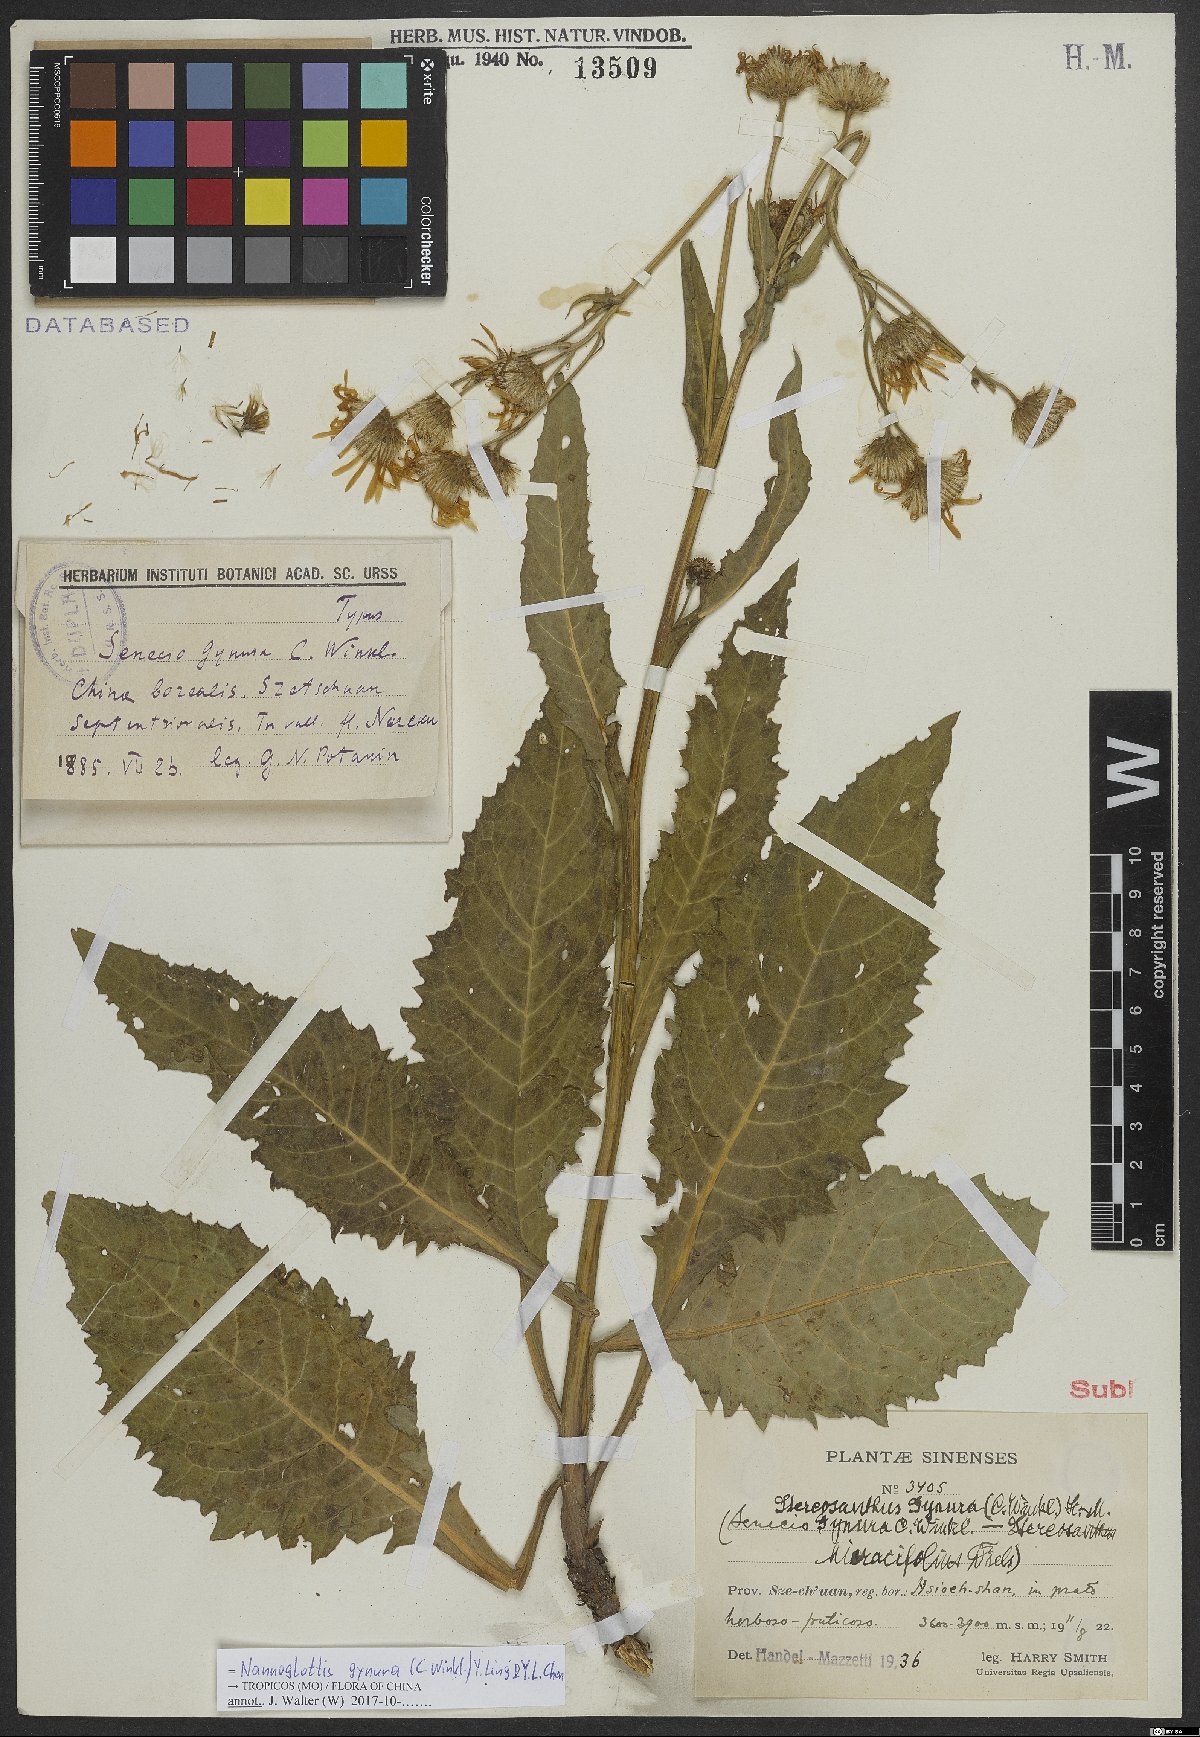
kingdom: Plantae
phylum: Tracheophyta
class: Magnoliopsida
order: Asterales
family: Asteraceae
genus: Nannoglottis
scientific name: Nannoglottis gynura
